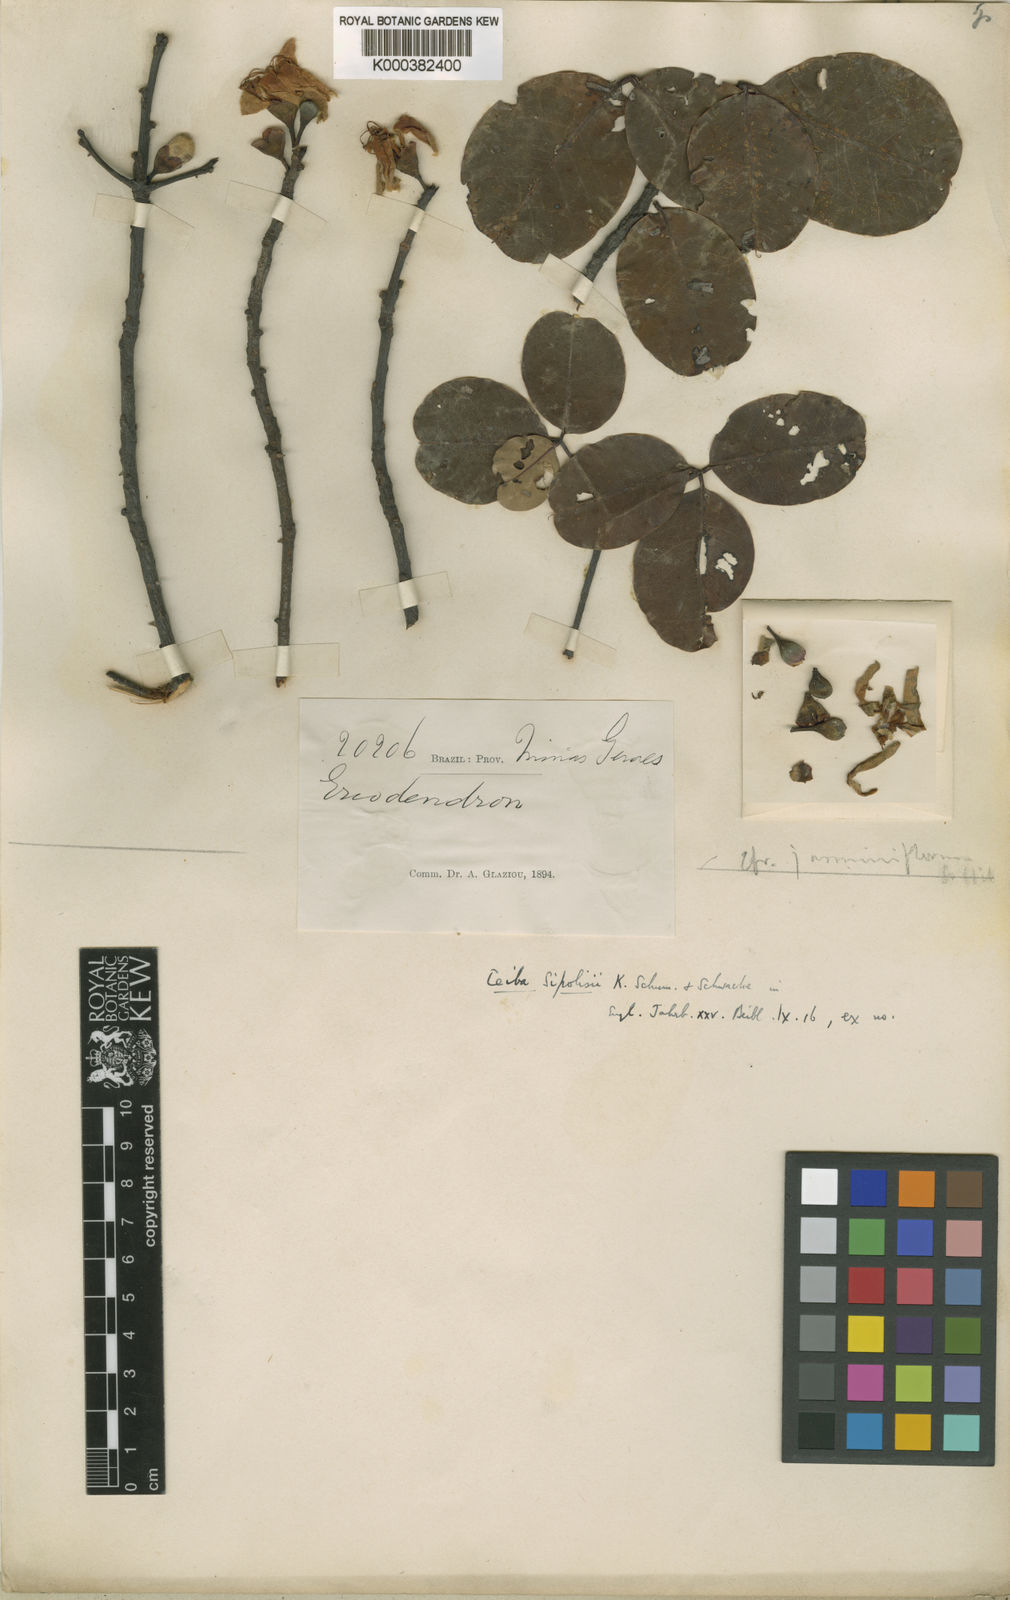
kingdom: Plantae
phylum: Tracheophyta
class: Magnoliopsida
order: Malvales
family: Malvaceae
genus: Ceiba
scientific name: Ceiba jasminodora
